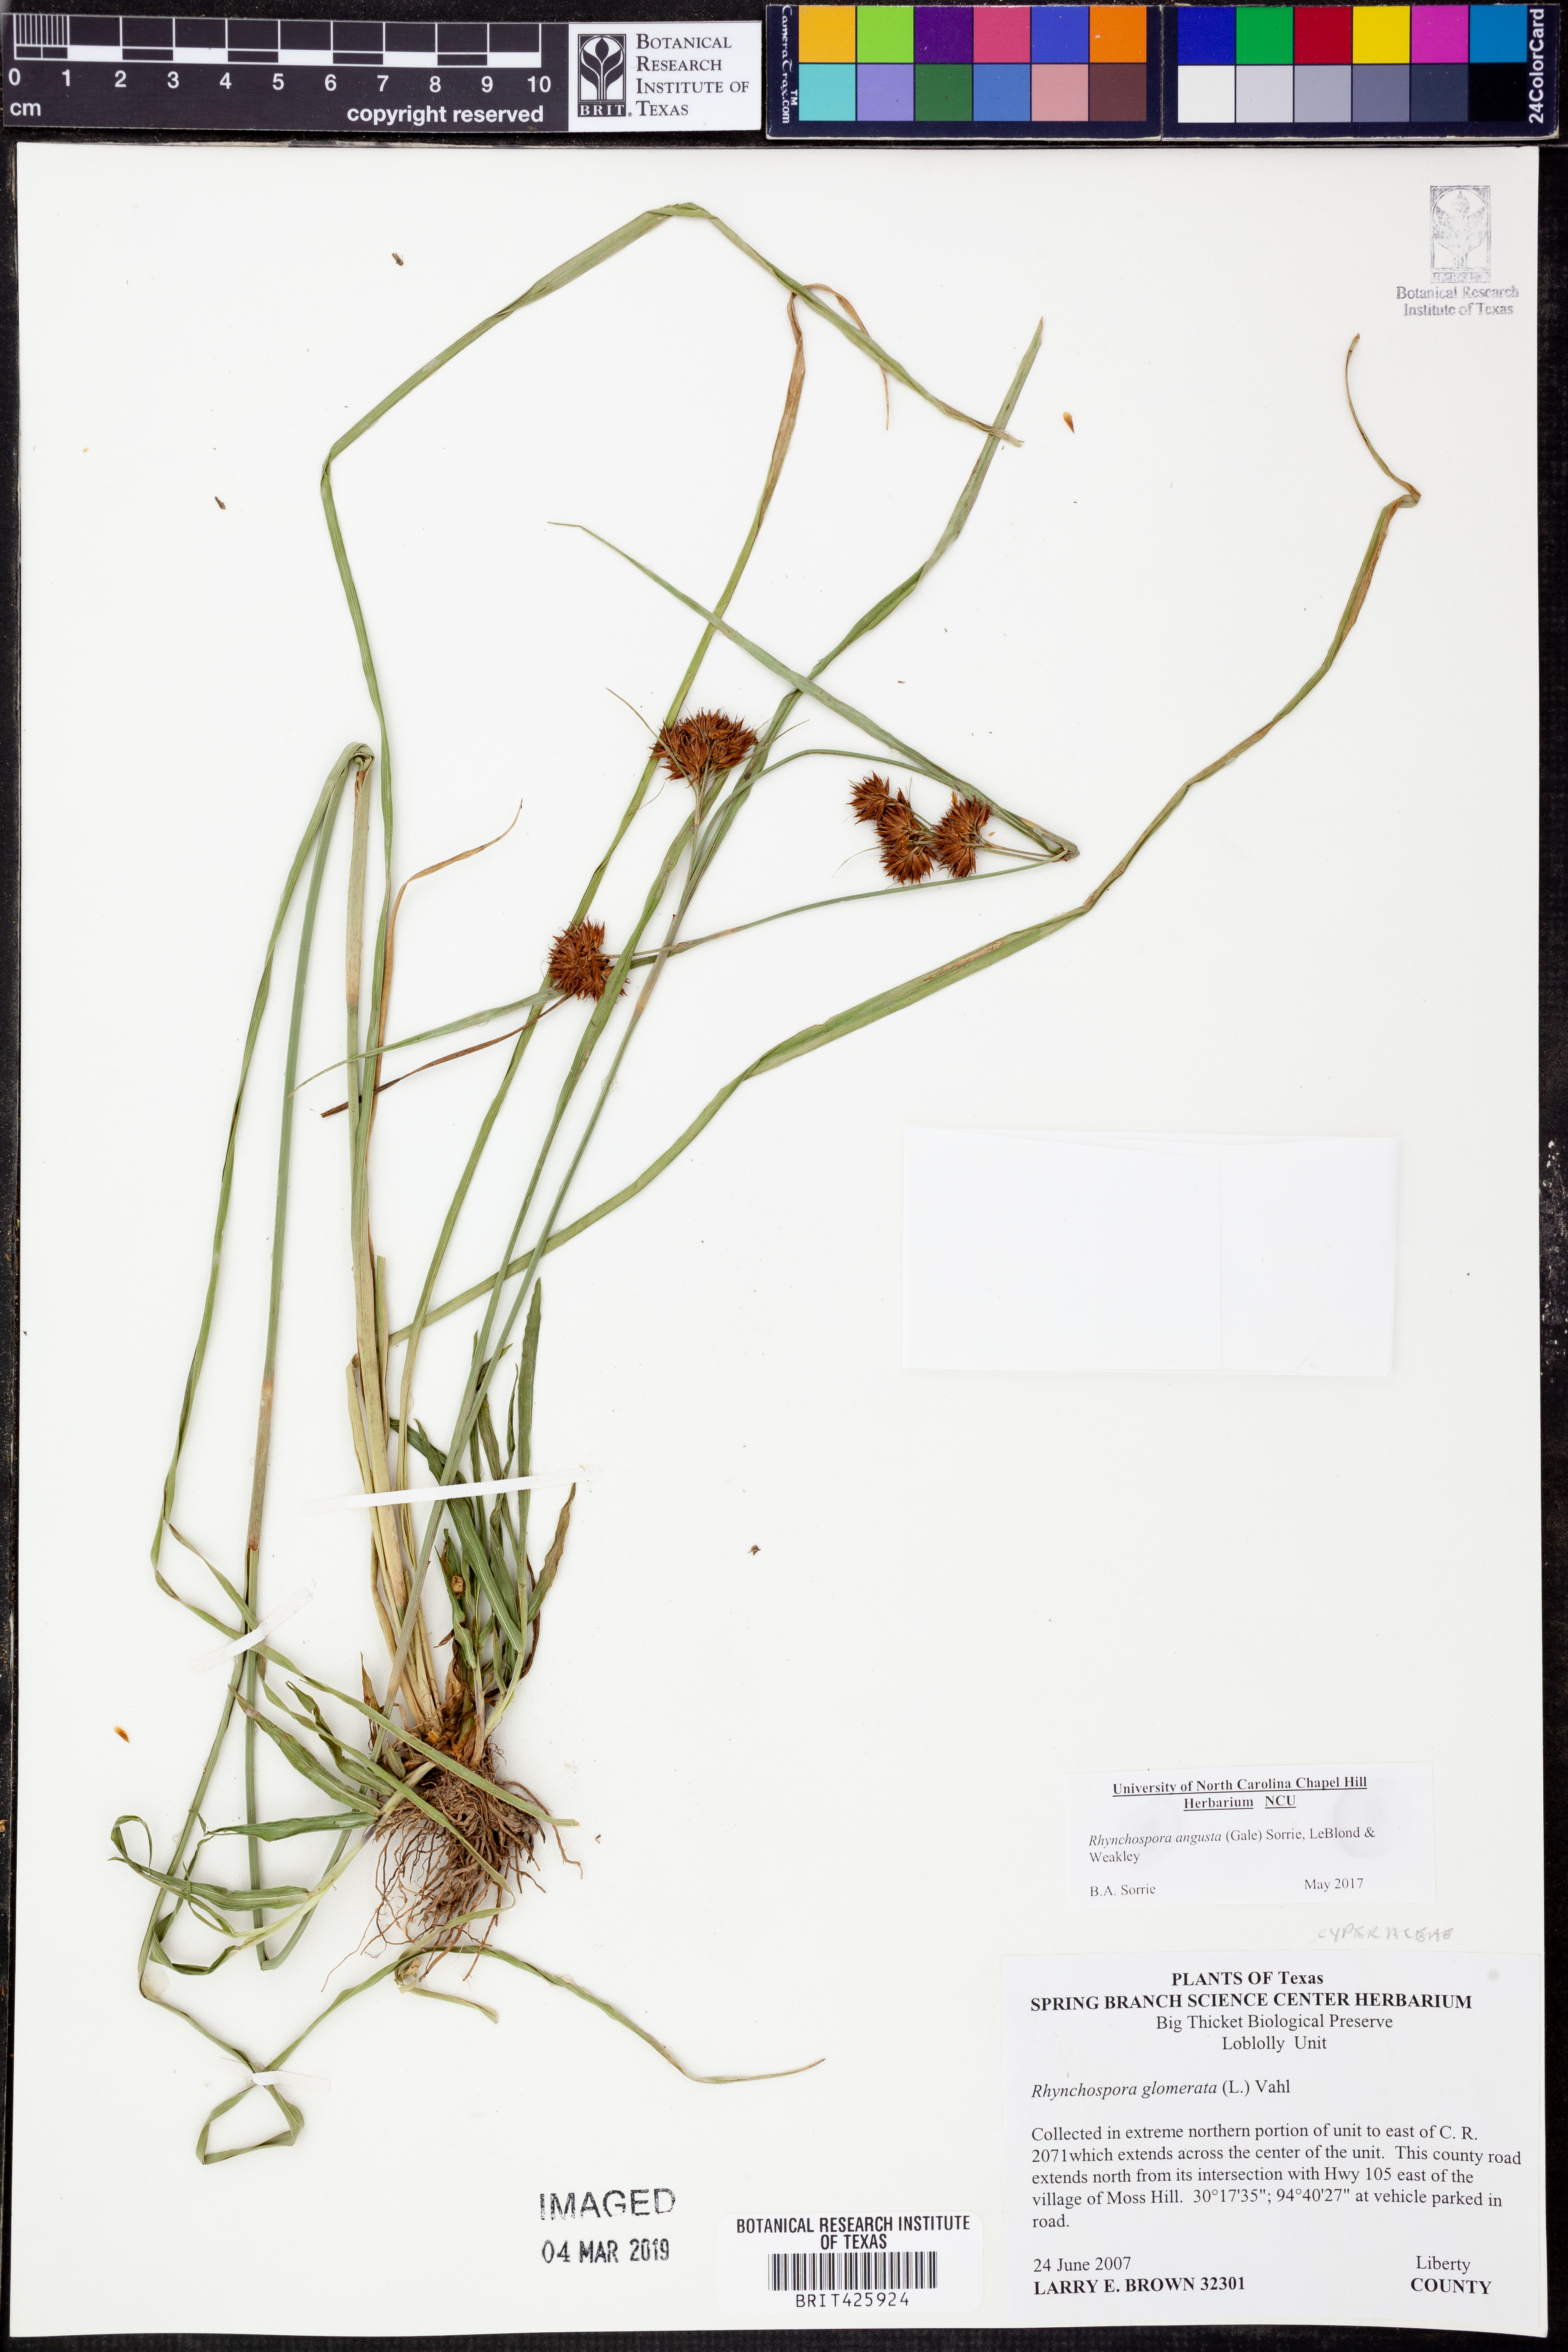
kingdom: Plantae
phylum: Tracheophyta
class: Liliopsida
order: Poales
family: Cyperaceae
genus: Rhynchospora
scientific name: Rhynchospora angusta
